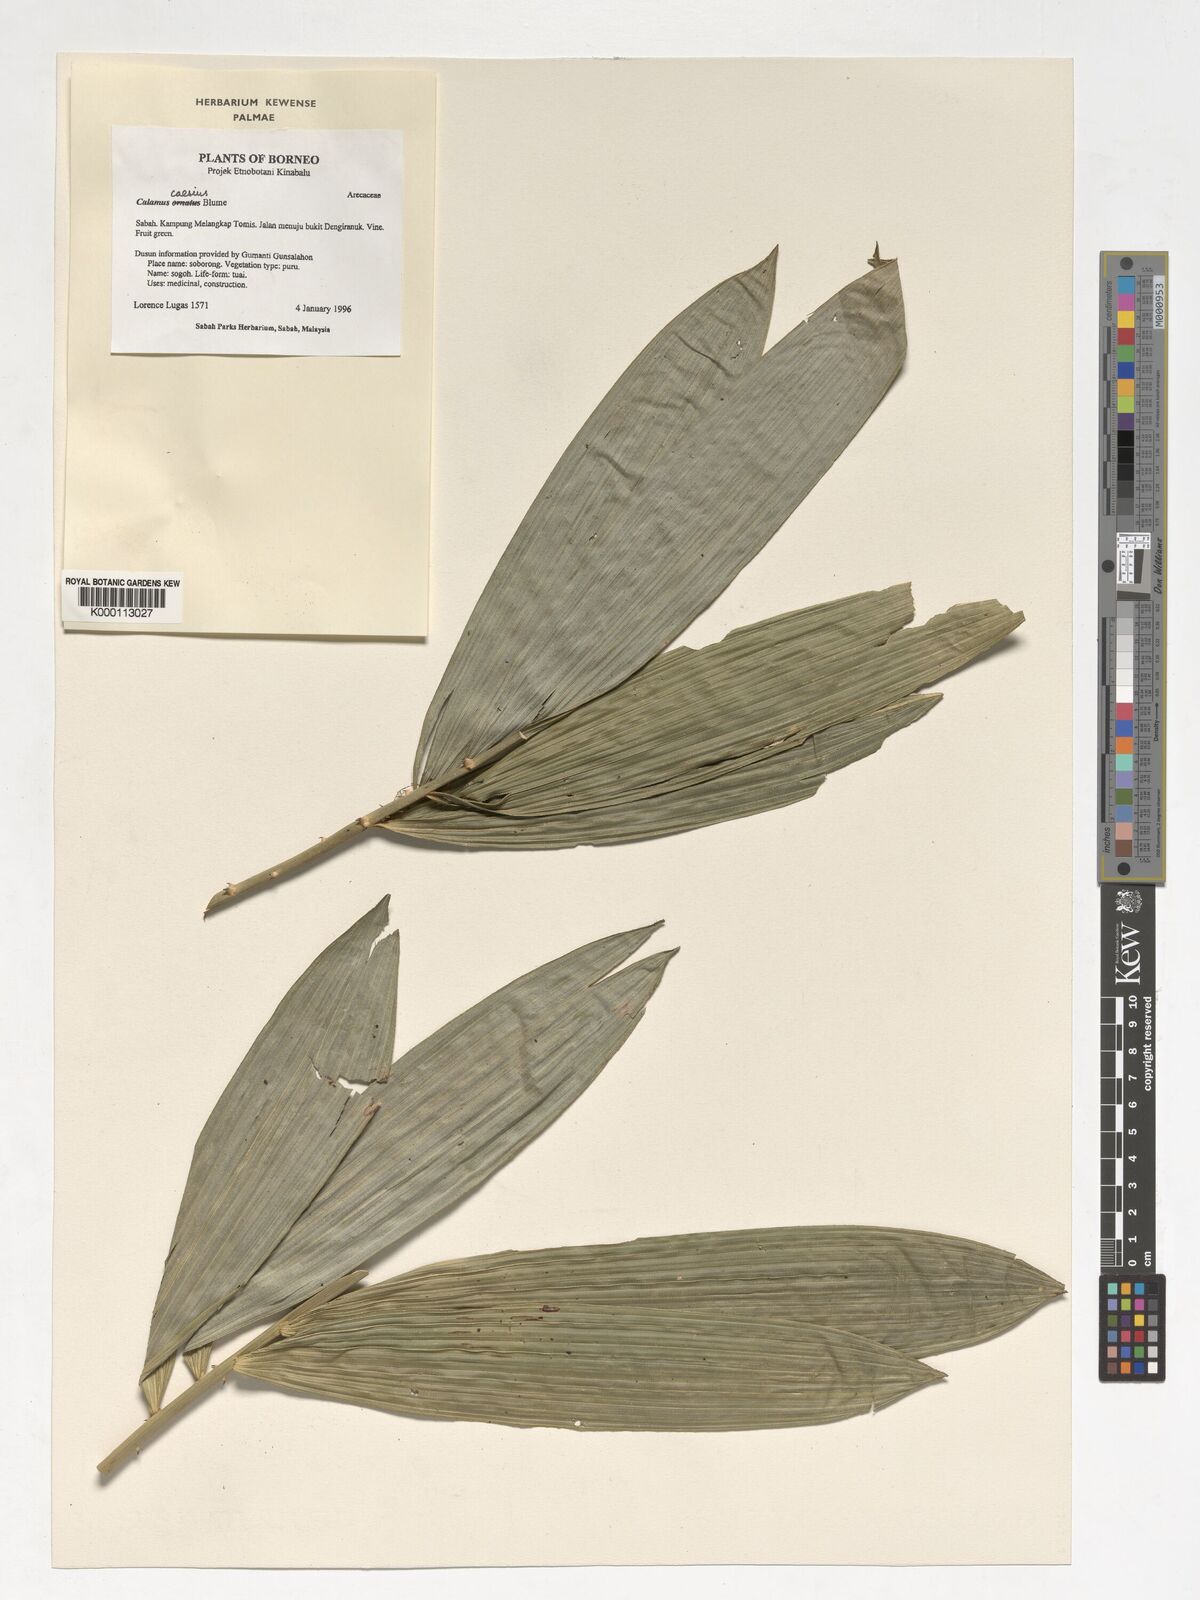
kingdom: Plantae
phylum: Tracheophyta
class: Liliopsida
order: Arecales
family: Arecaceae
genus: Calamus
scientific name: Calamus caesius
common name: Rattan palm
